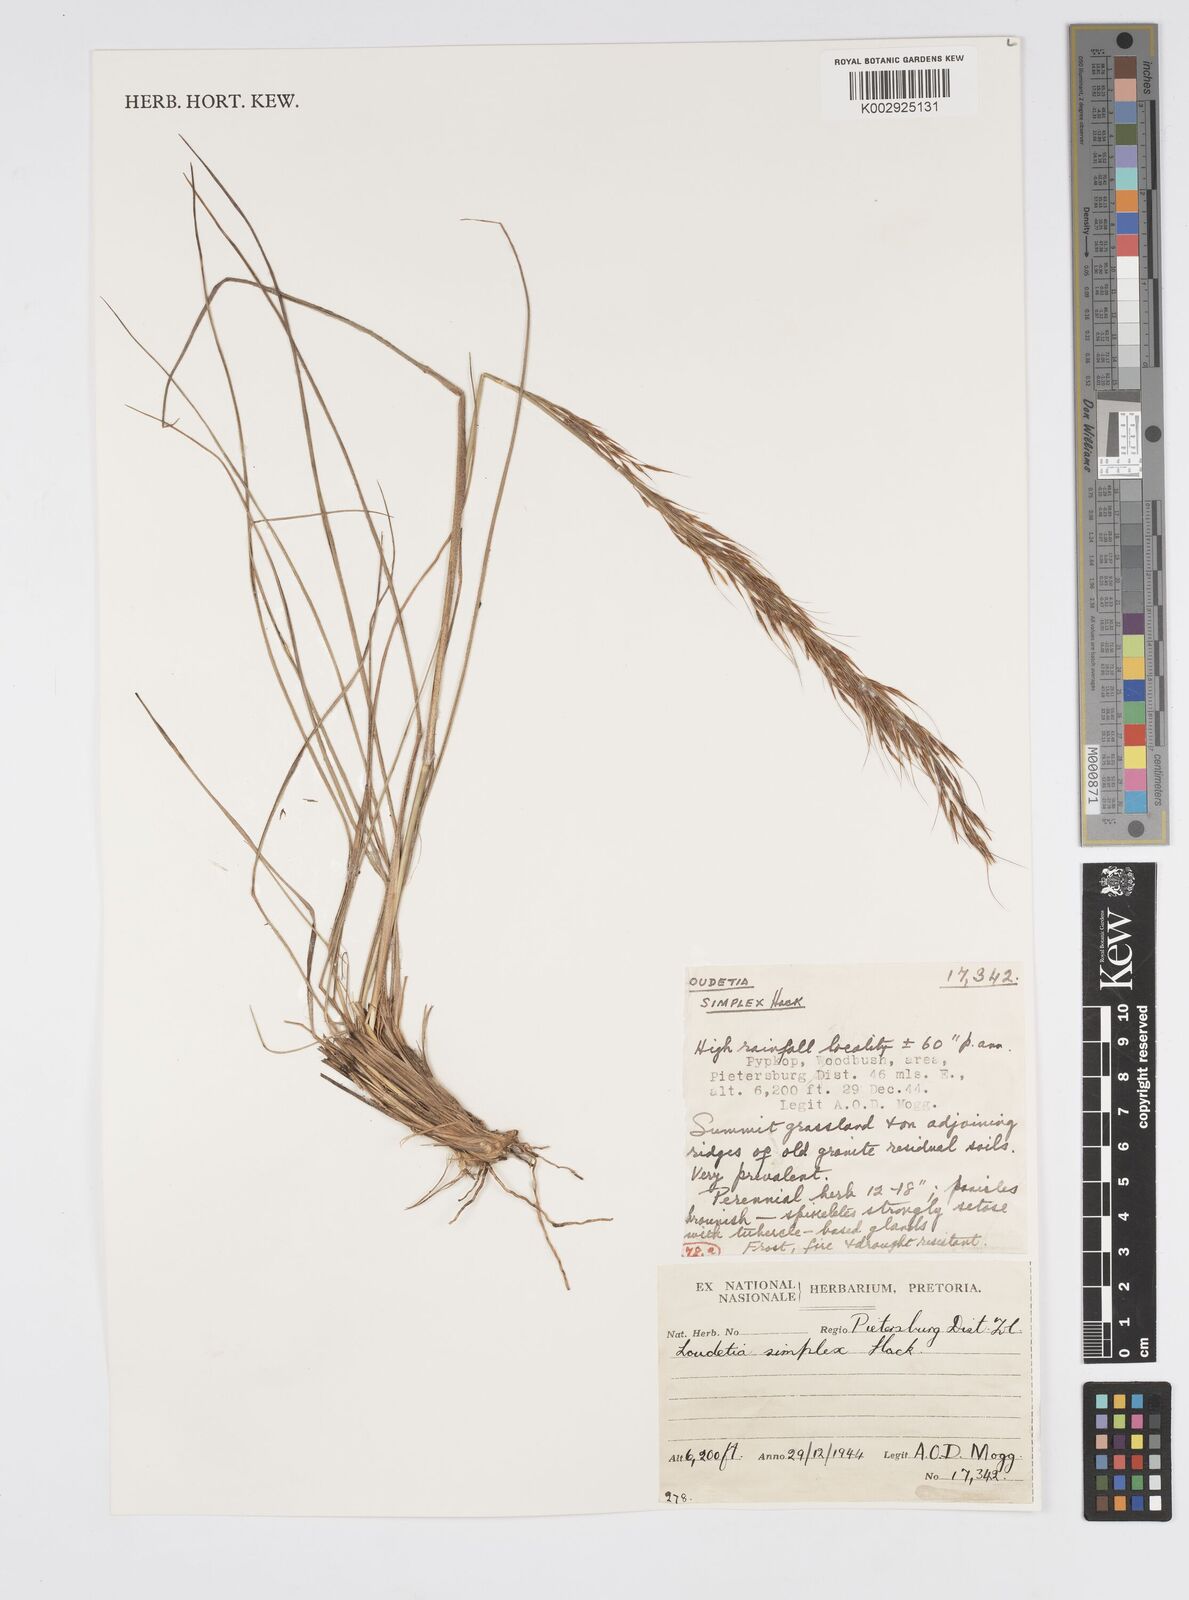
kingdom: Plantae
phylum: Tracheophyta
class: Liliopsida
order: Poales
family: Poaceae
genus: Loudetia
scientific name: Loudetia simplex
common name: Common russet grass
